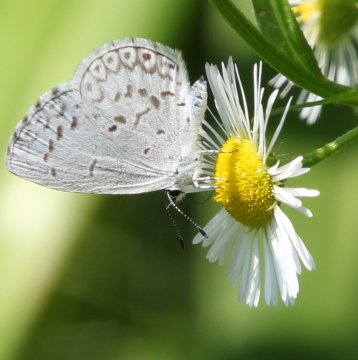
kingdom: Animalia
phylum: Arthropoda
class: Insecta
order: Lepidoptera
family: Lycaenidae
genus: Cyaniris
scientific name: Cyaniris neglecta
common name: Summer Azure
